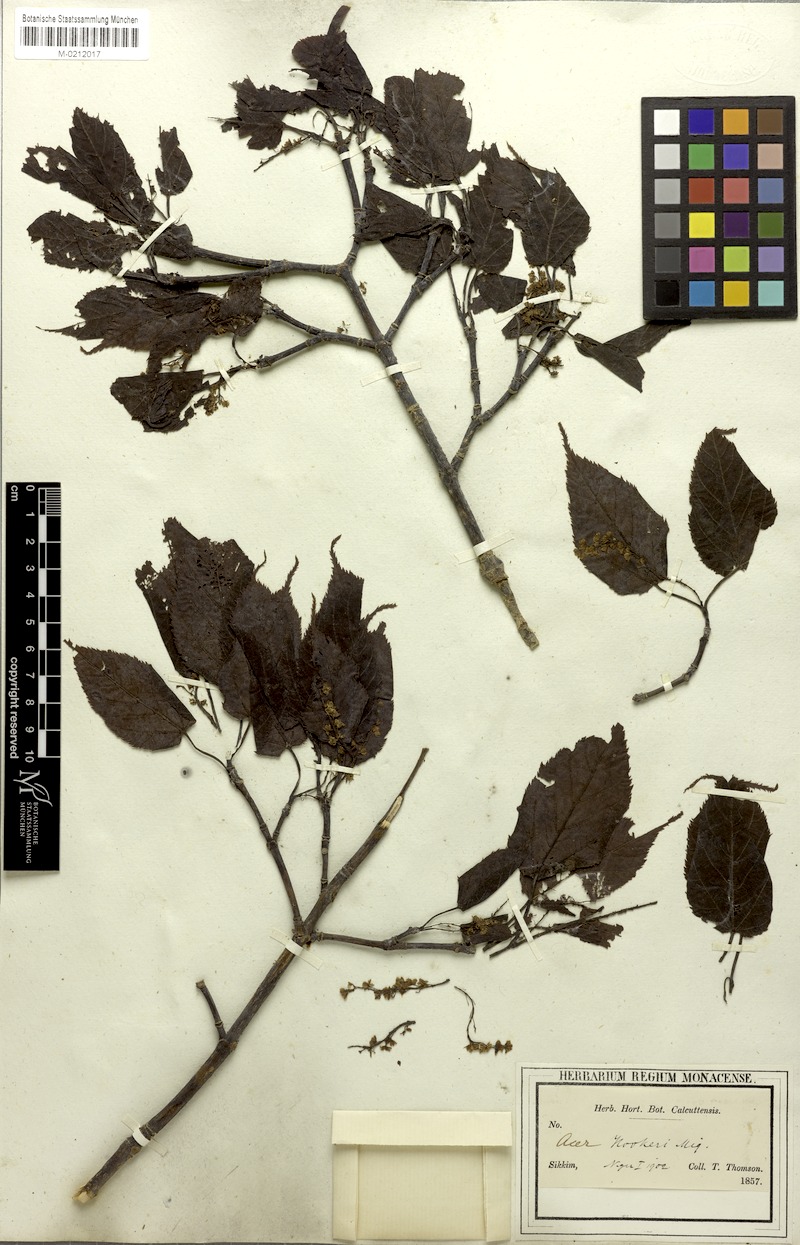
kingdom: Plantae
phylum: Tracheophyta
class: Magnoliopsida
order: Sapindales
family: Sapindaceae
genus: Acer
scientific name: Acer sikkimense
